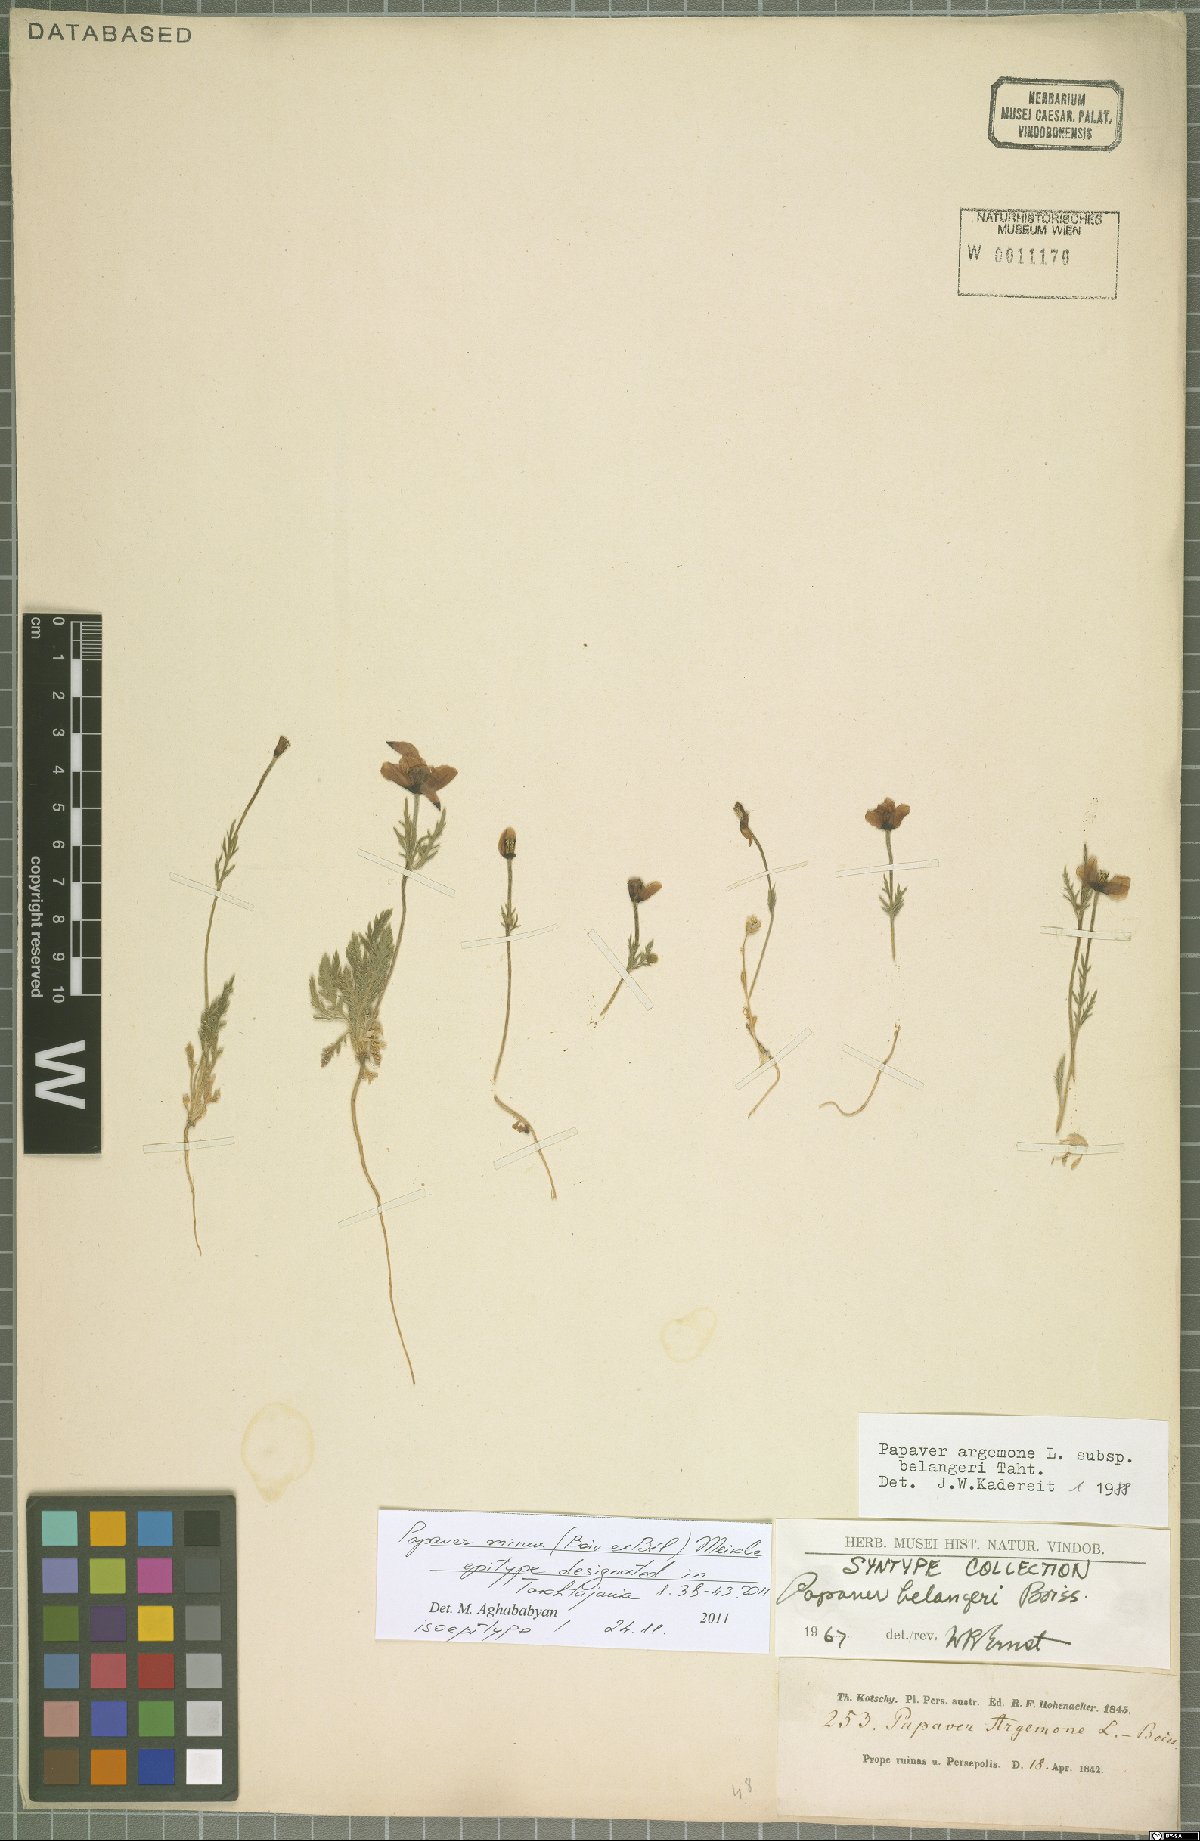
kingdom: Plantae
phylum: Tracheophyta
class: Magnoliopsida
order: Ranunculales
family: Papaveraceae
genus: Roemeria
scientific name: Roemeria minor
